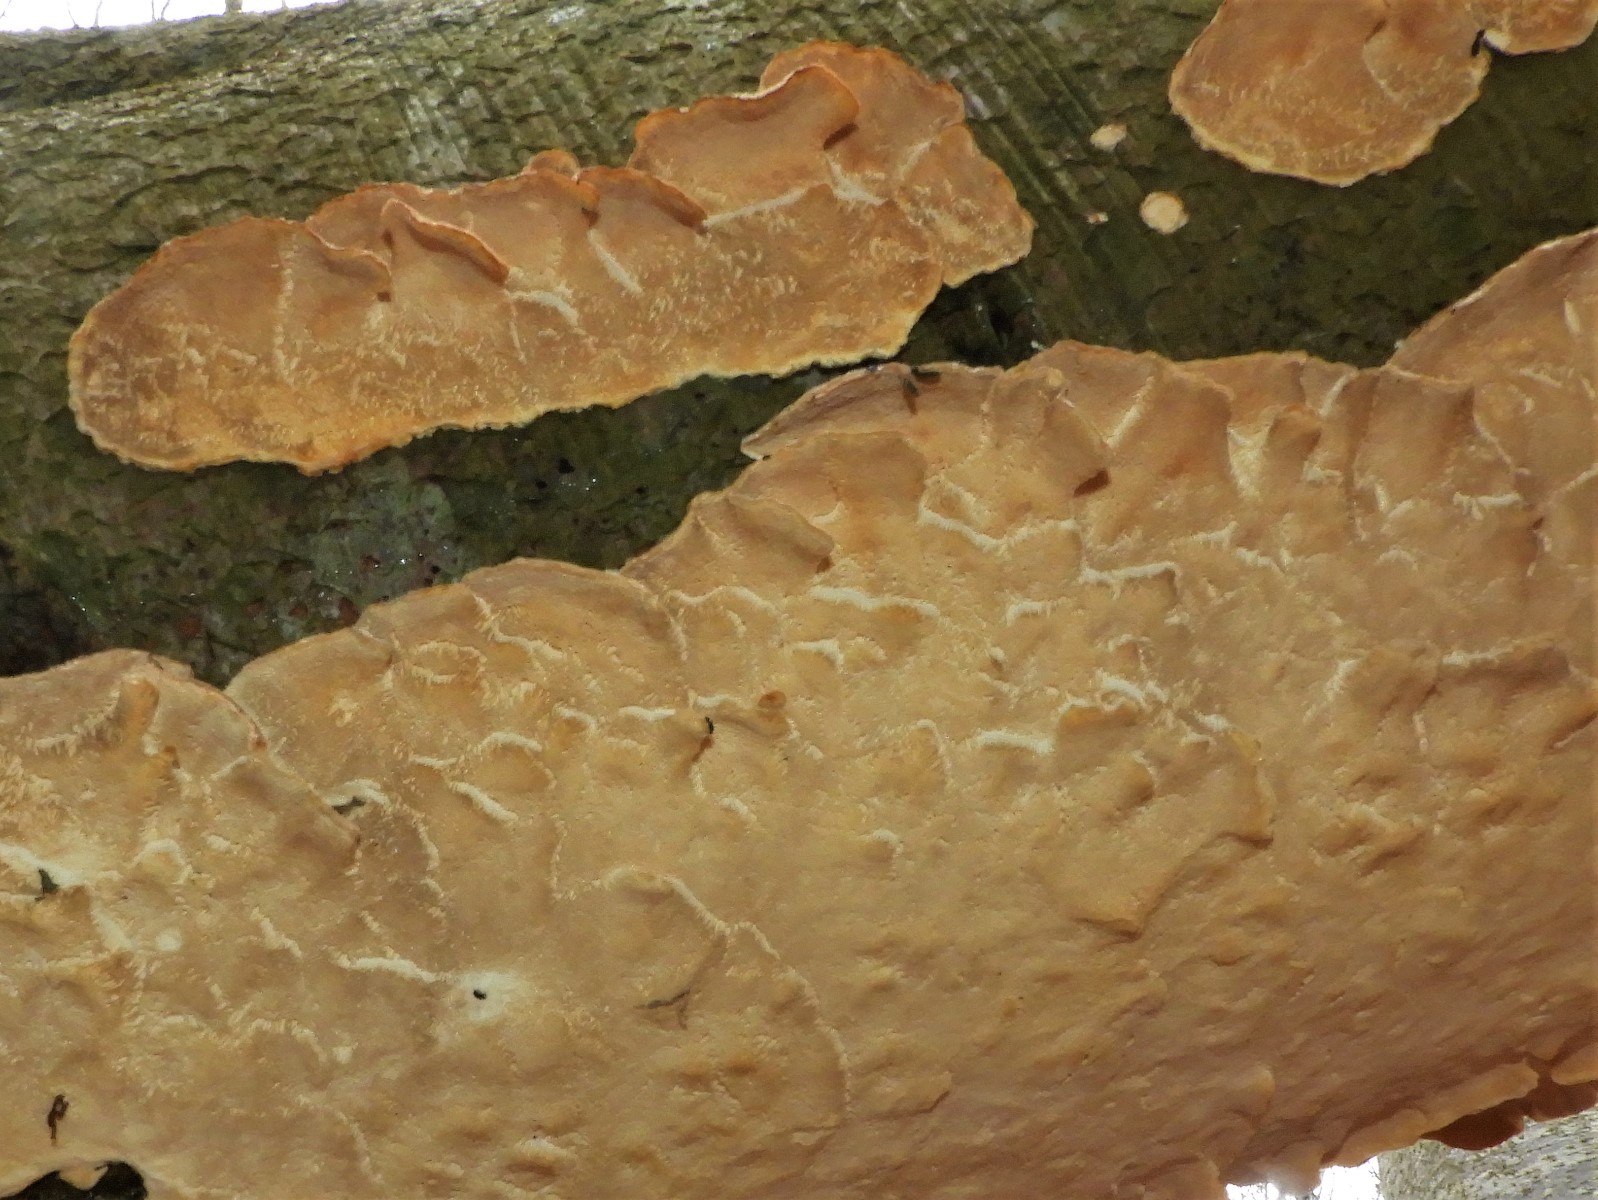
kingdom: Fungi
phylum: Basidiomycota
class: Agaricomycetes
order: Russulales
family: Stereaceae
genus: Stereum
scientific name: Stereum hirsutum
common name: håret lædersvamp
